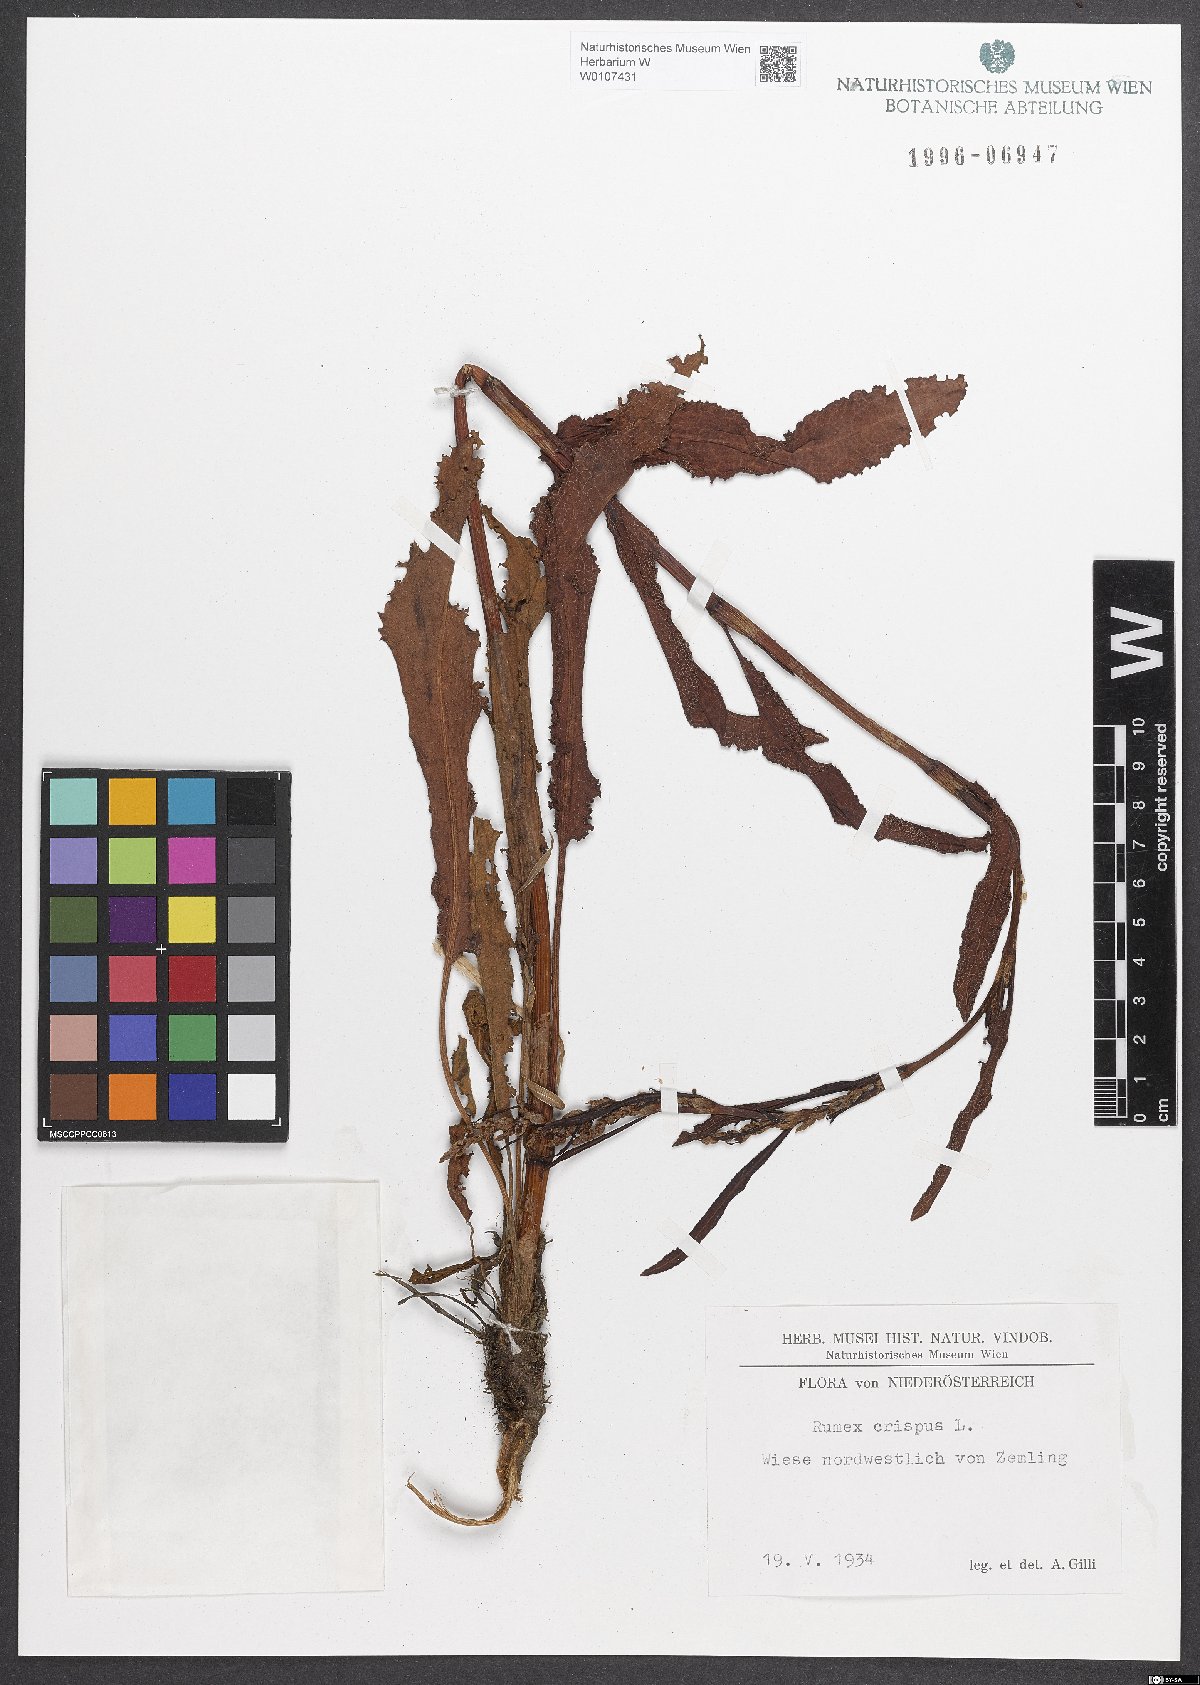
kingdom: Plantae
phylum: Tracheophyta
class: Magnoliopsida
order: Caryophyllales
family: Polygonaceae
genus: Rumex
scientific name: Rumex crispus
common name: Curled dock
